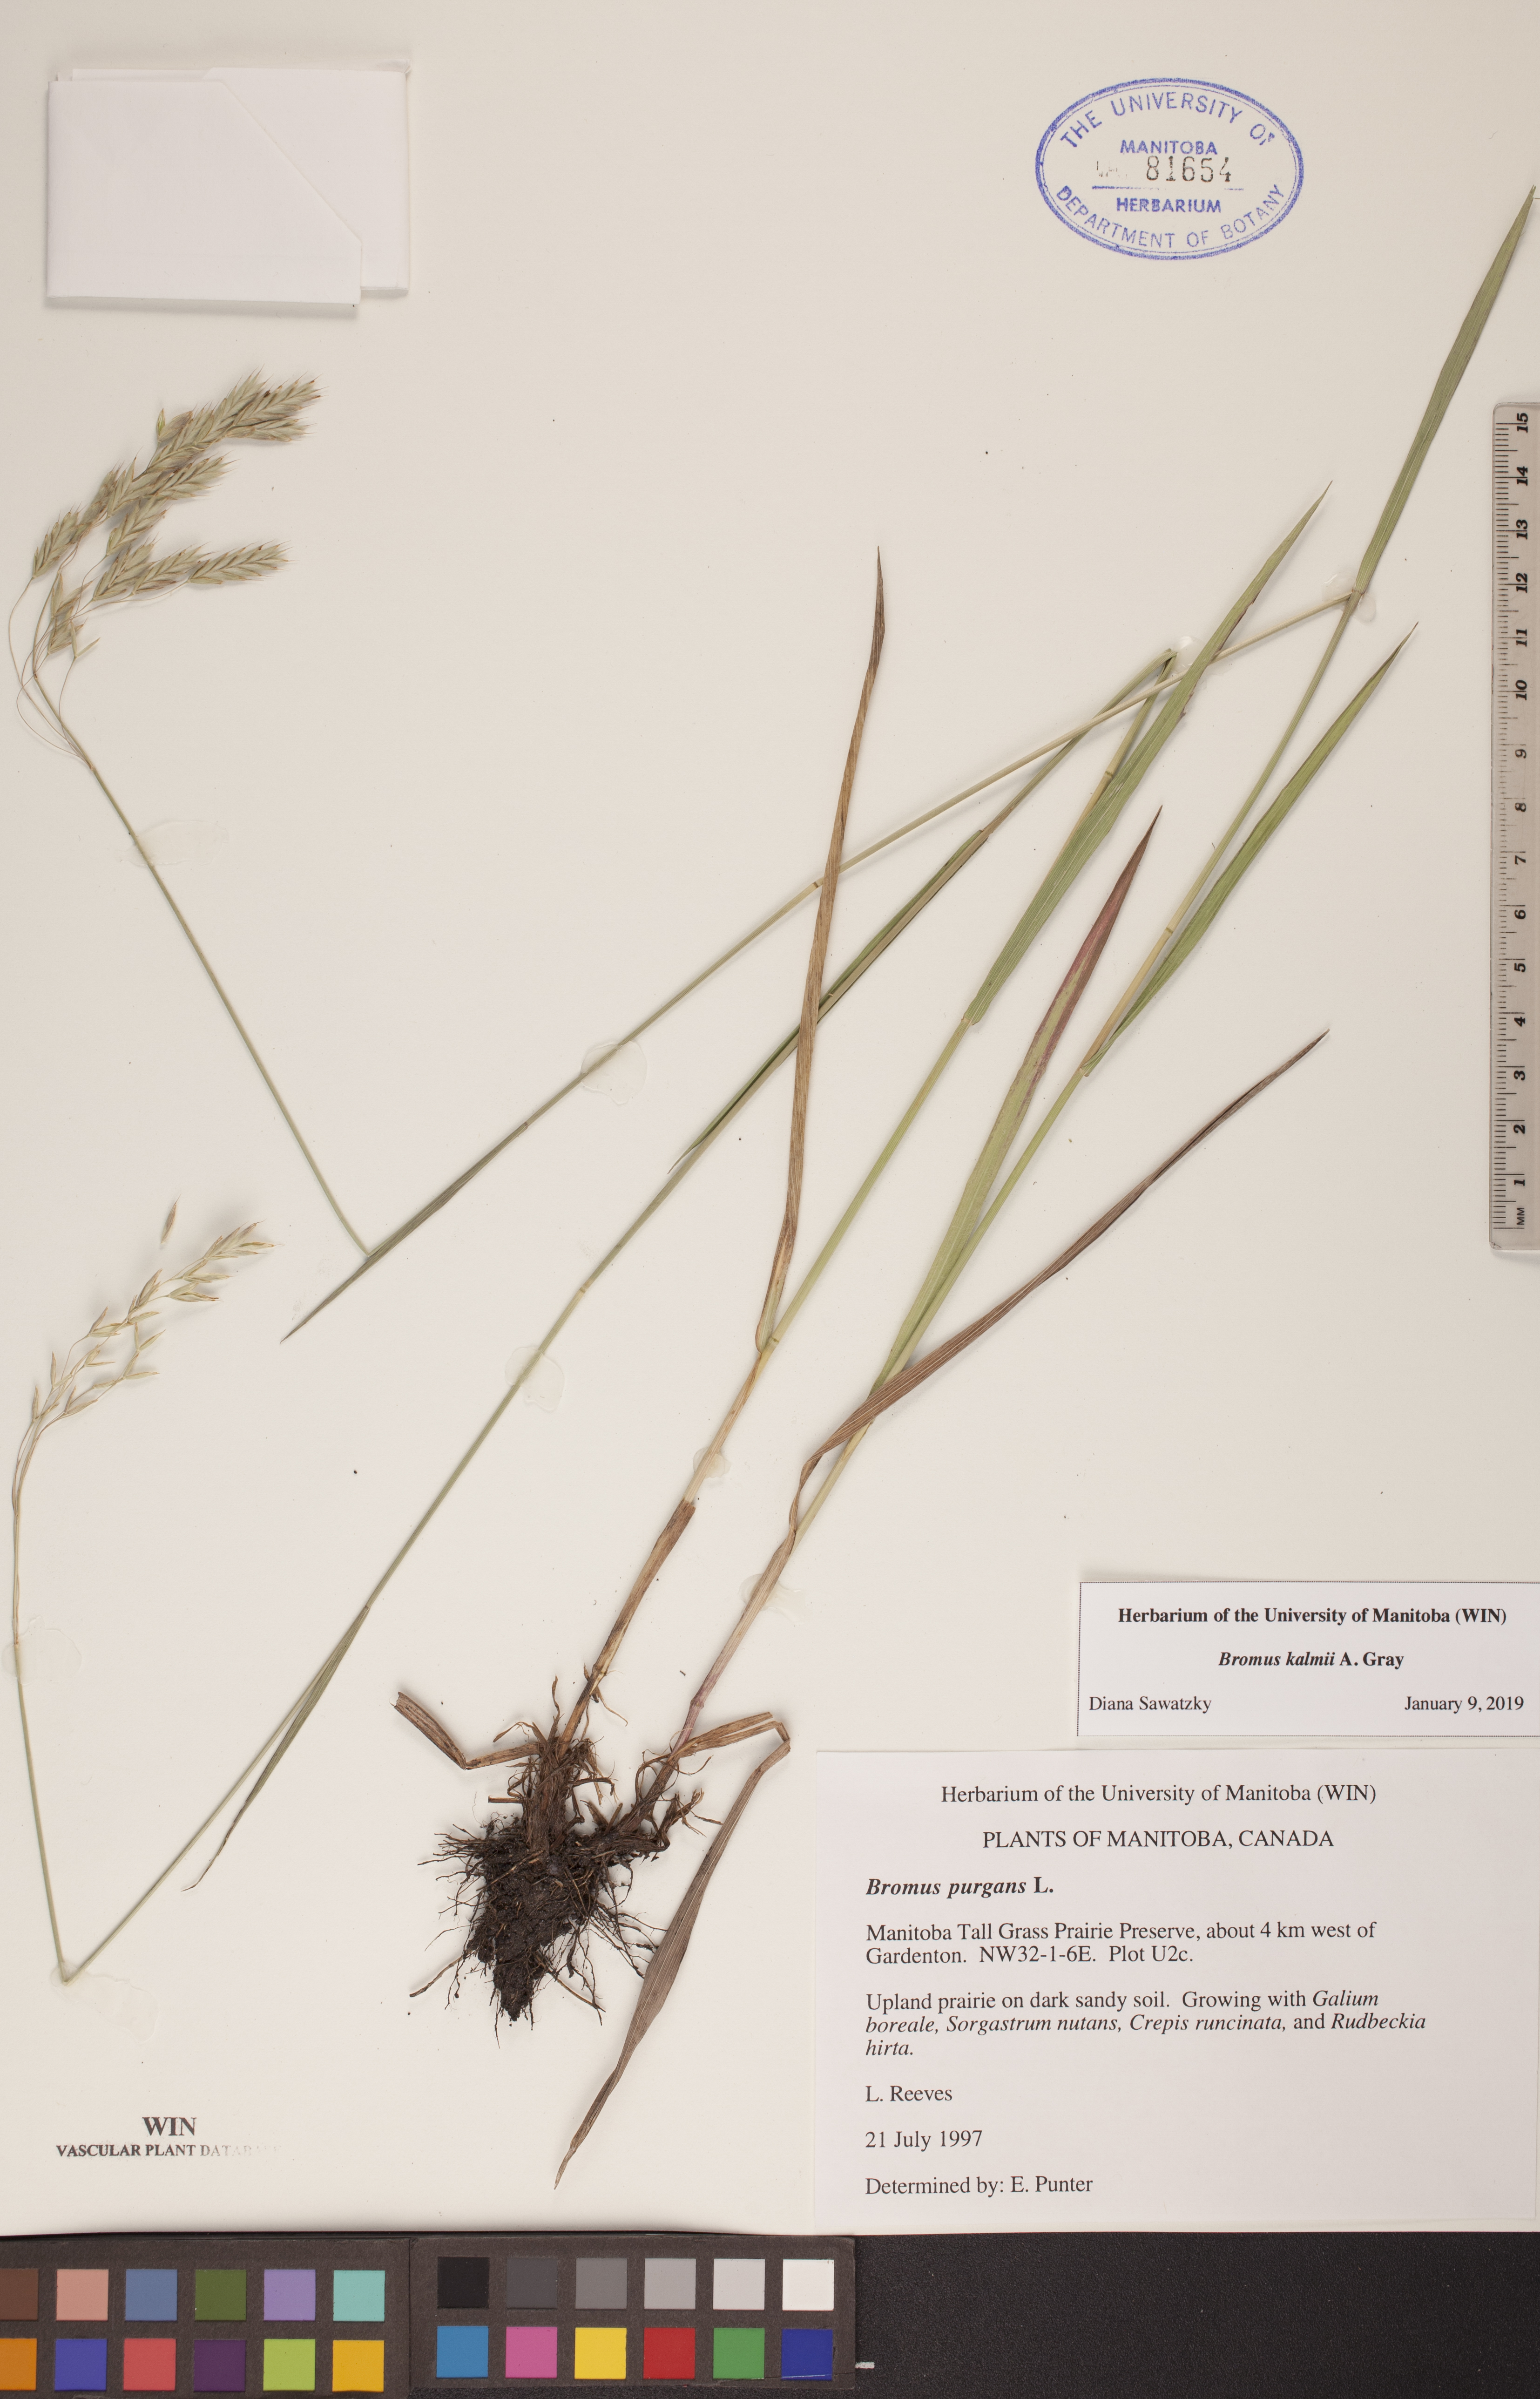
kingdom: Plantae
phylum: Tracheophyta
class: Liliopsida
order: Poales
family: Poaceae
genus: Bromus
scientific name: Bromus kalmii
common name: Kalm brome
